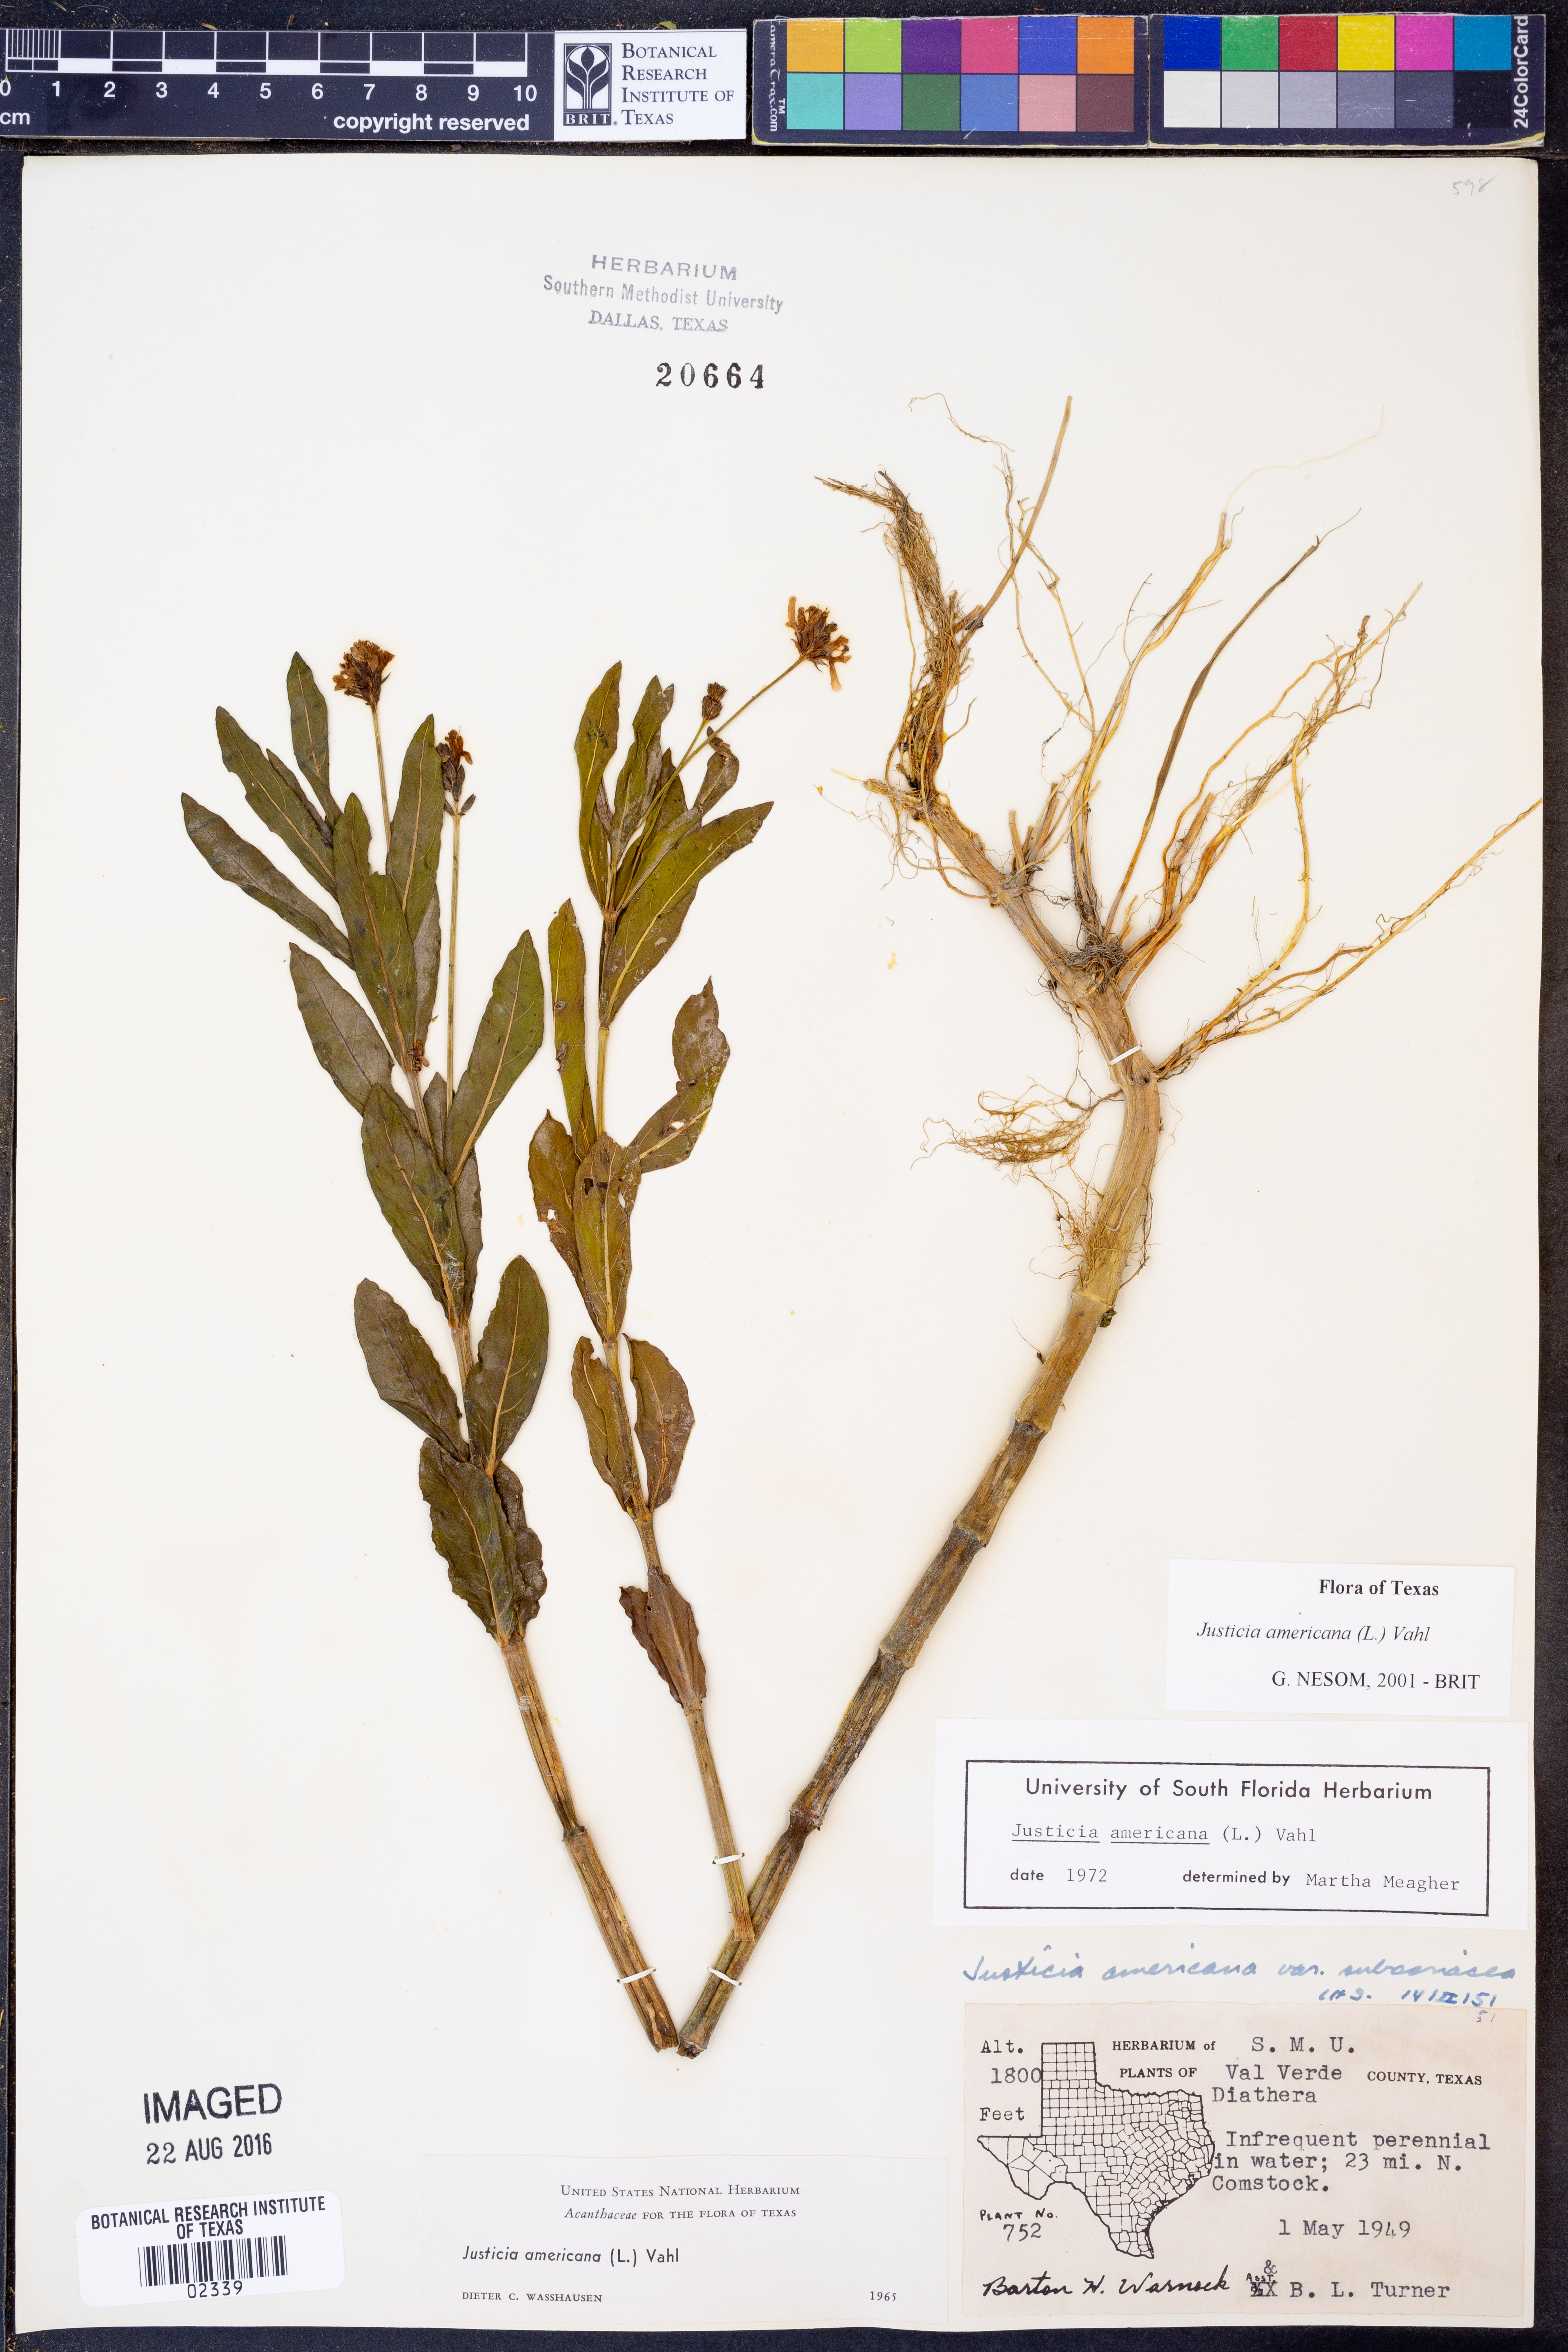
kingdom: Plantae
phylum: Tracheophyta
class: Magnoliopsida
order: Lamiales
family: Acanthaceae
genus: Dianthera
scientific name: Dianthera americana
